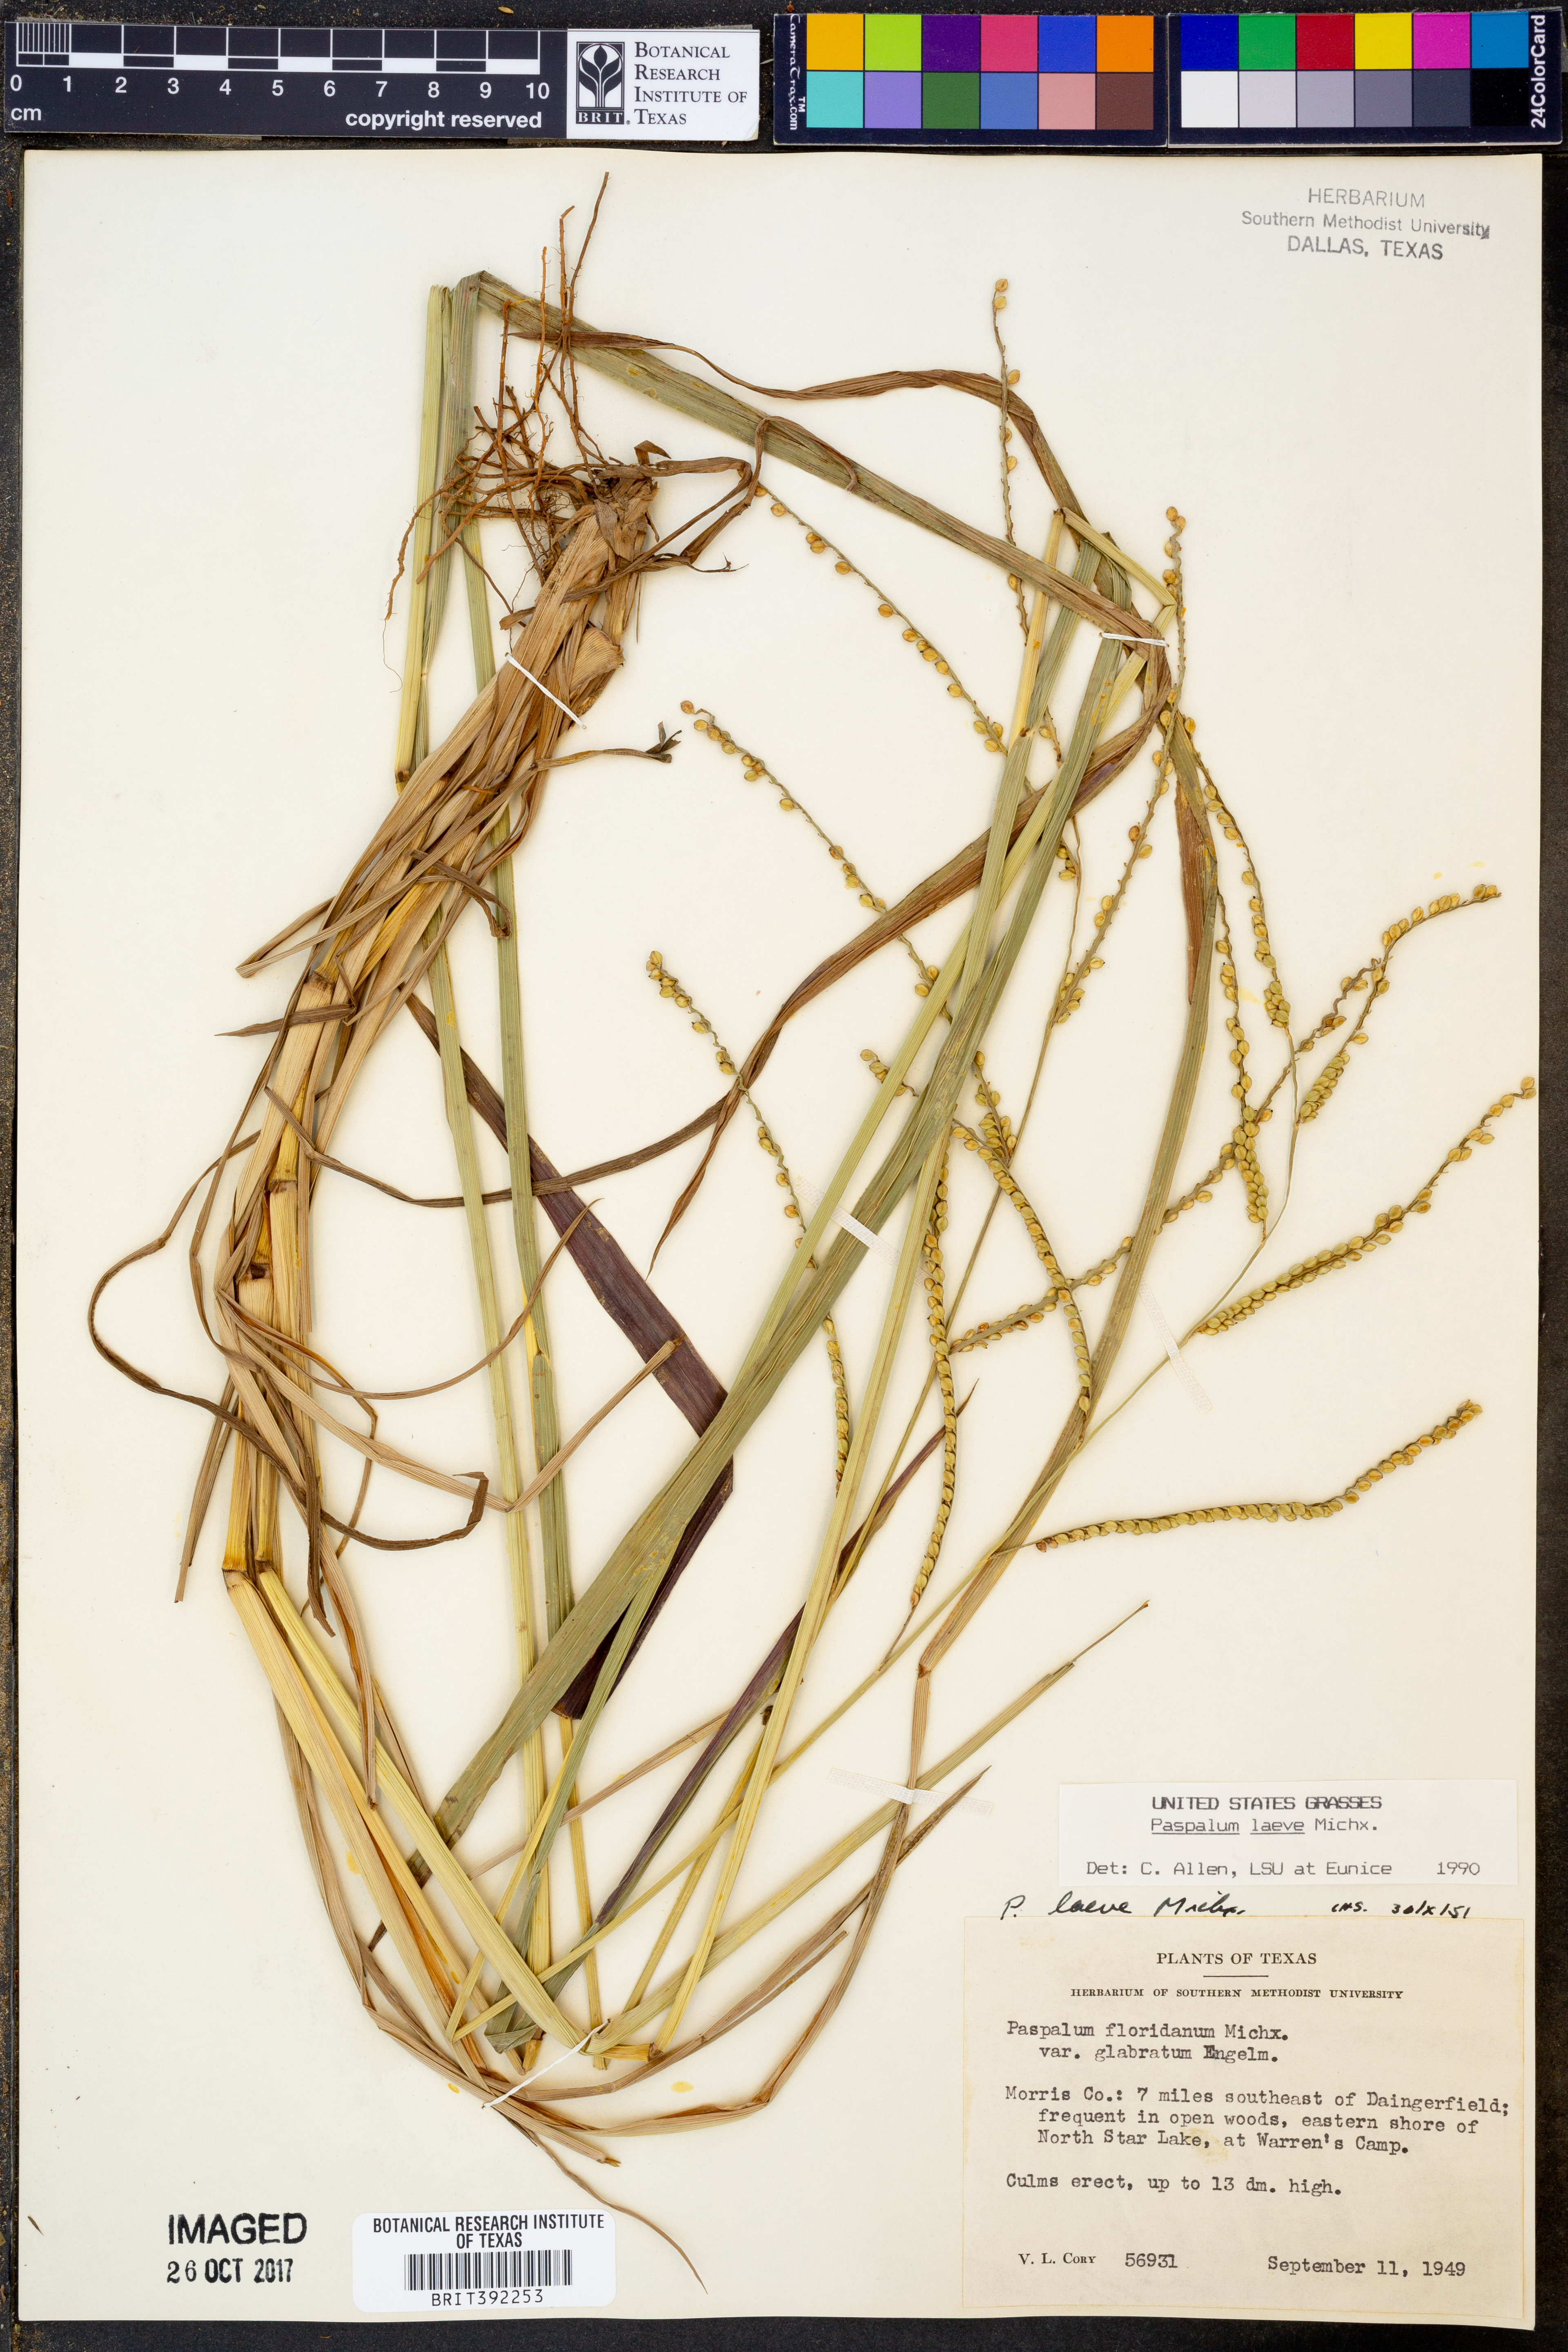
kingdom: Plantae
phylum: Tracheophyta
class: Liliopsida
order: Poales
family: Poaceae
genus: Paspalum
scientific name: Paspalum laeve
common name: Field paspalum
